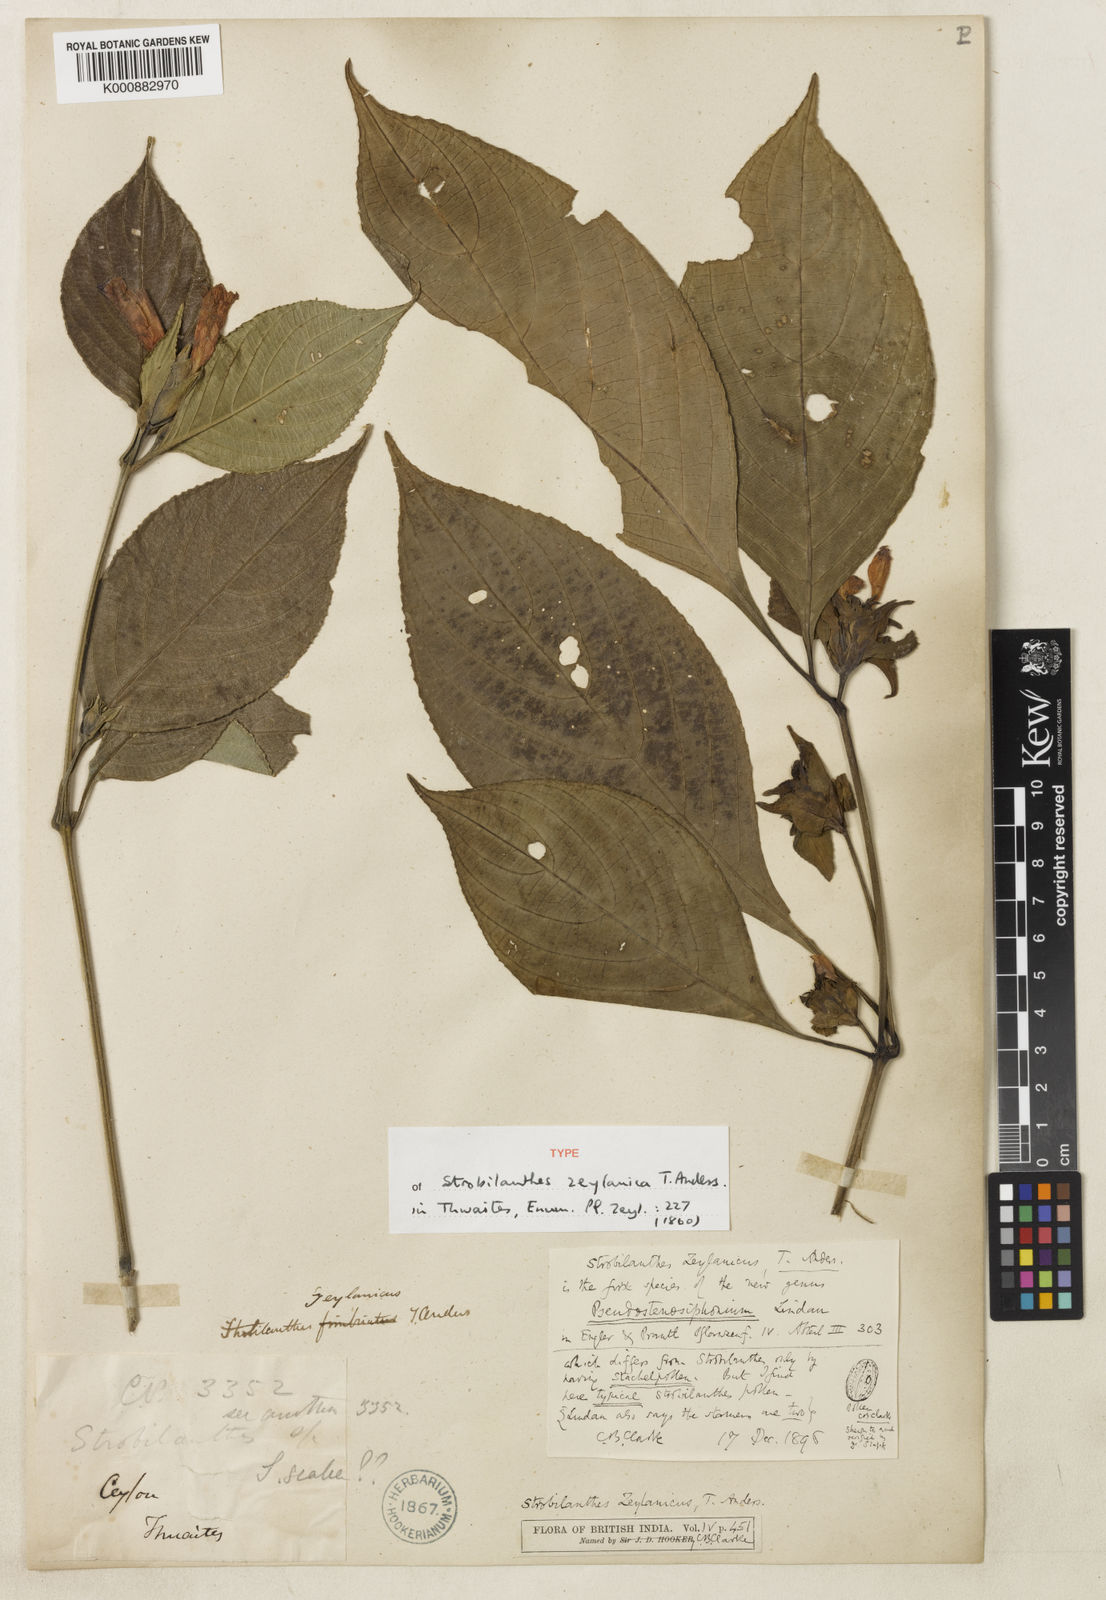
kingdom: Plantae
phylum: Tracheophyta
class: Magnoliopsida
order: Lamiales
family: Acanthaceae
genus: Strobilanthes
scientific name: Strobilanthes zeylanica
